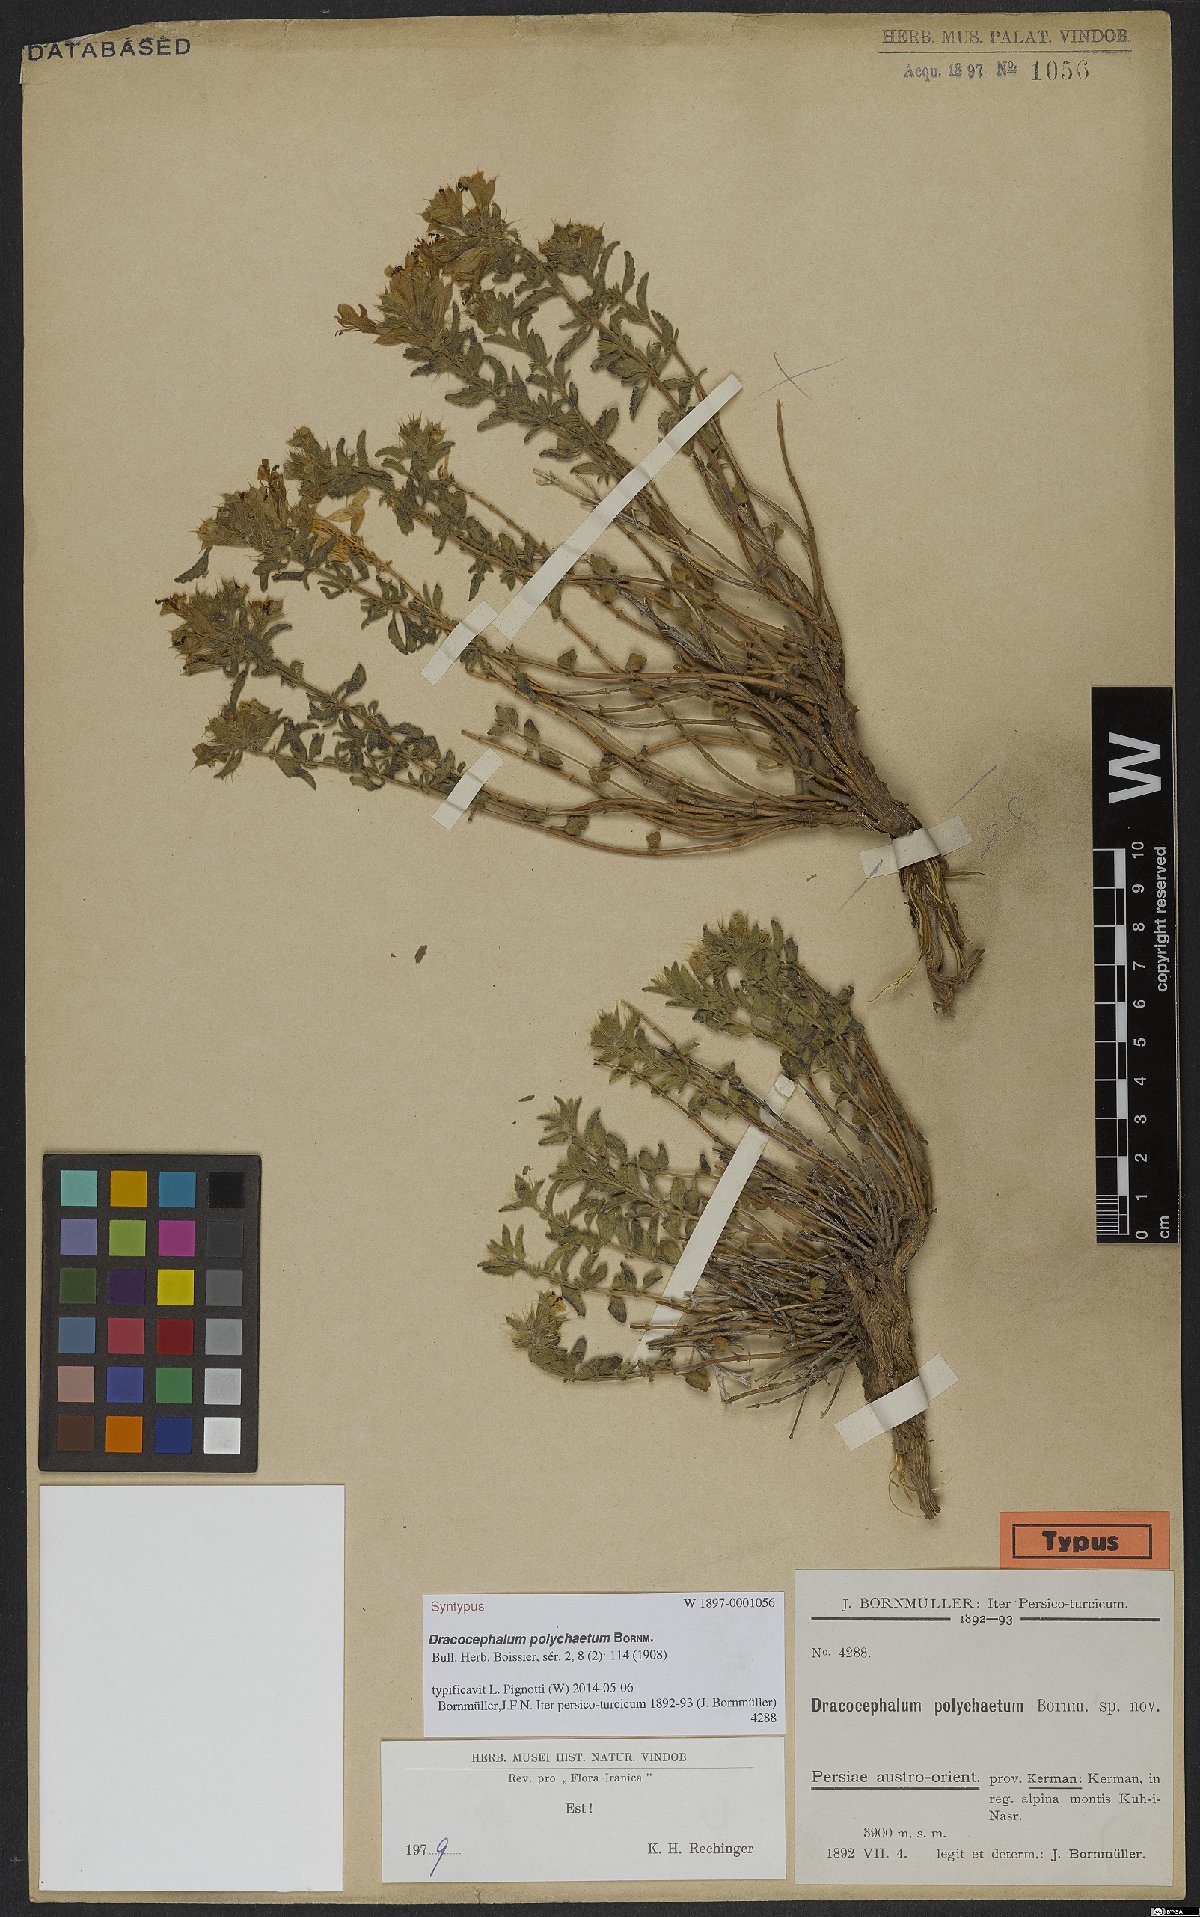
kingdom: Plantae
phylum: Tracheophyta
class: Magnoliopsida
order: Lamiales
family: Lamiaceae
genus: Dracocephalum
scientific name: Dracocephalum polychaetum
